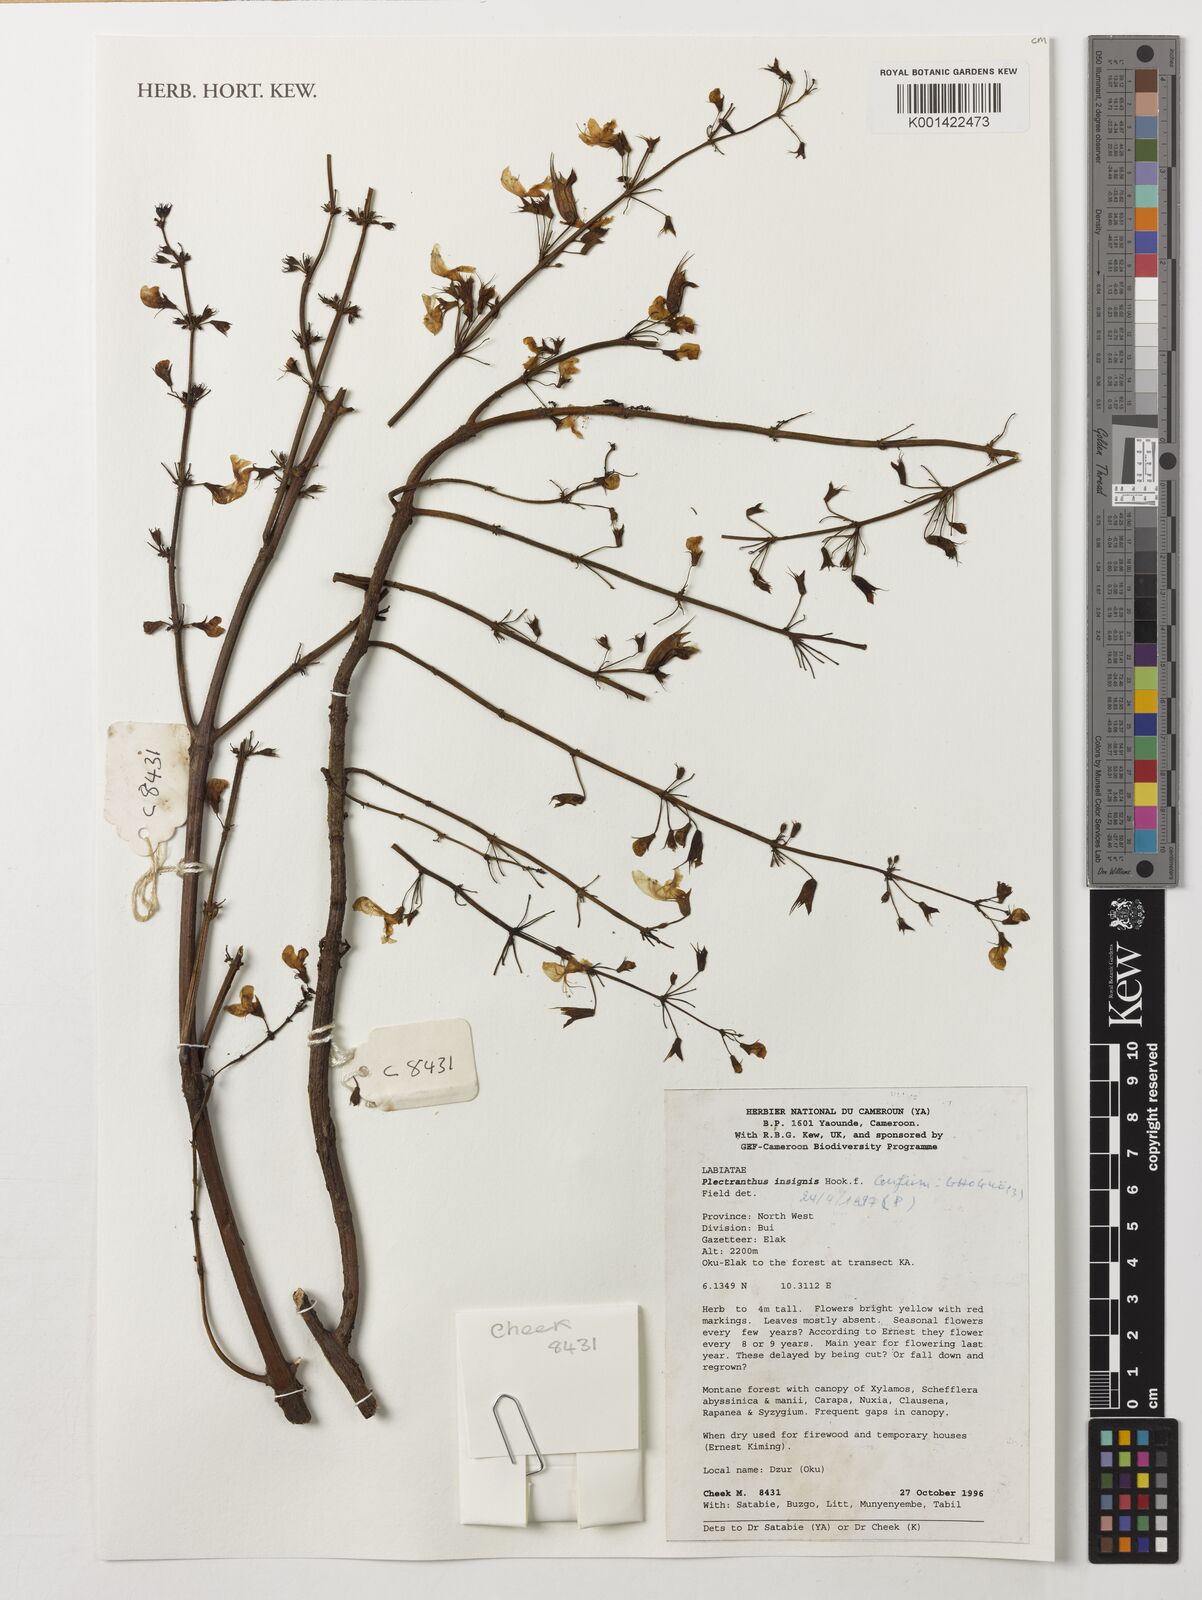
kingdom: Plantae
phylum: Tracheophyta
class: Magnoliopsida
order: Lamiales
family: Lamiaceae
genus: Coleus
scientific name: Coleus insignis
